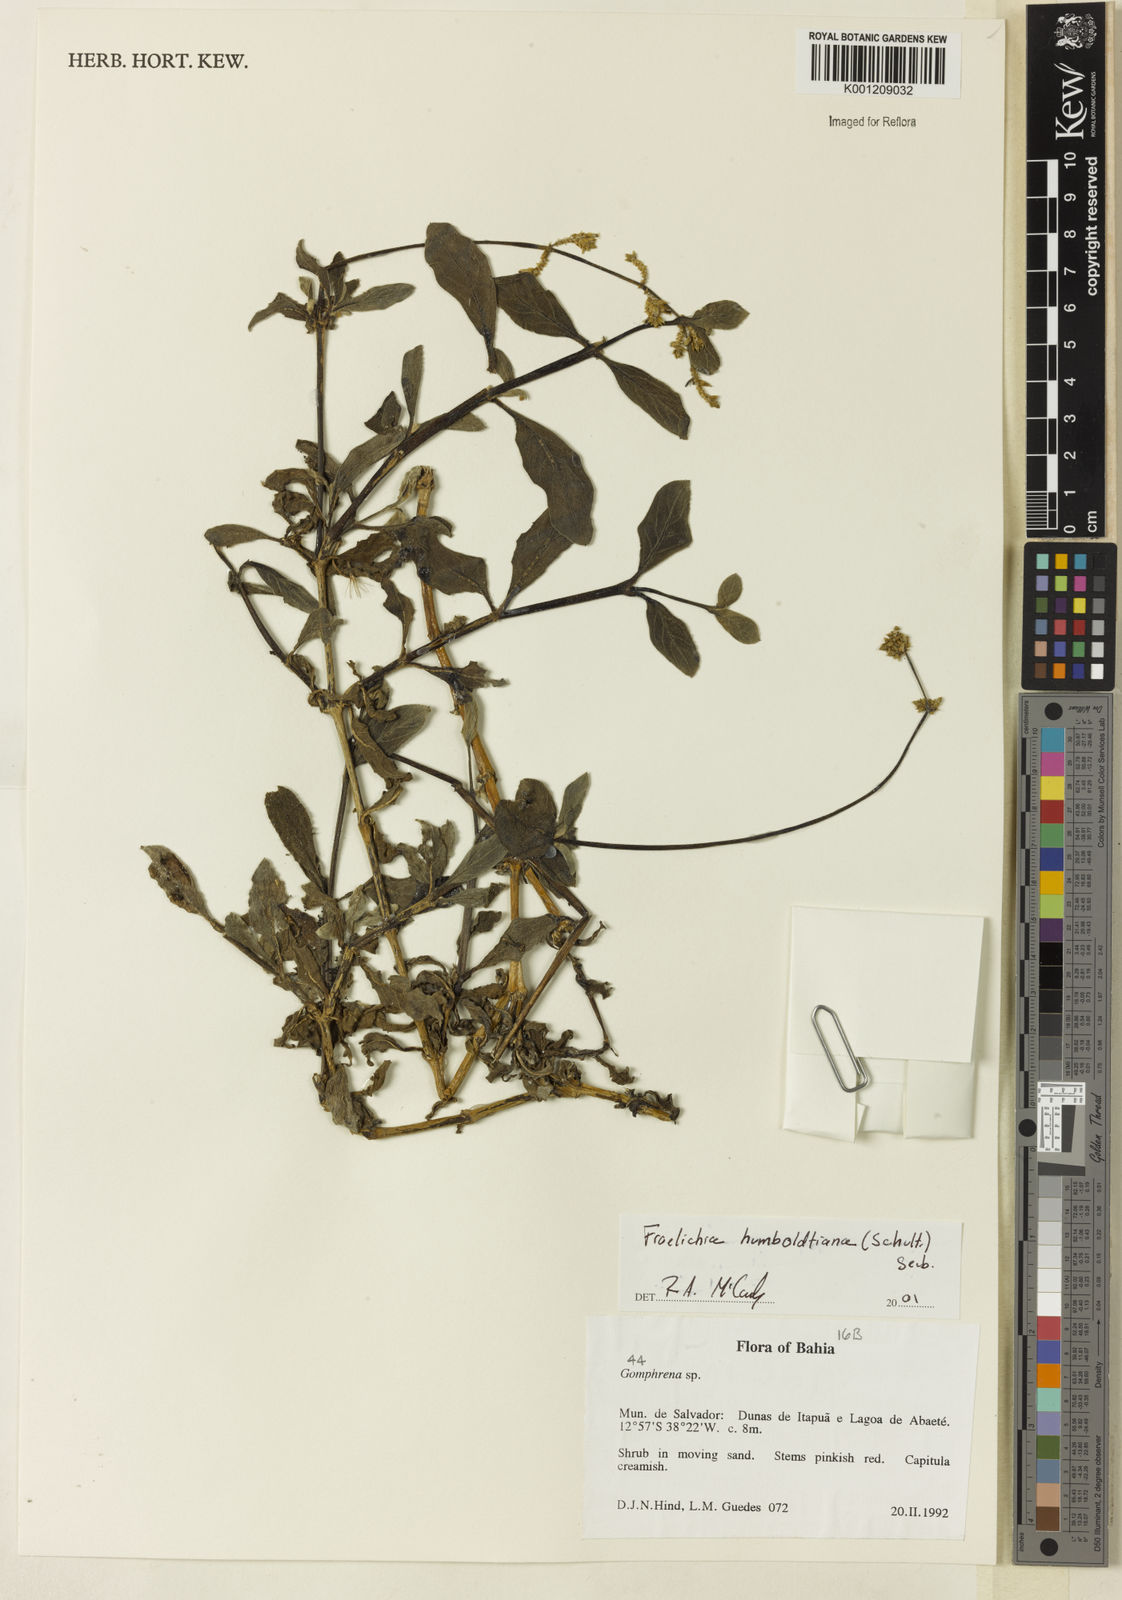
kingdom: Plantae
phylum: Tracheophyta
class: Magnoliopsida
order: Caryophyllales
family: Amaranthaceae
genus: Froelichia
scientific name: Froelichia humboldtiana
